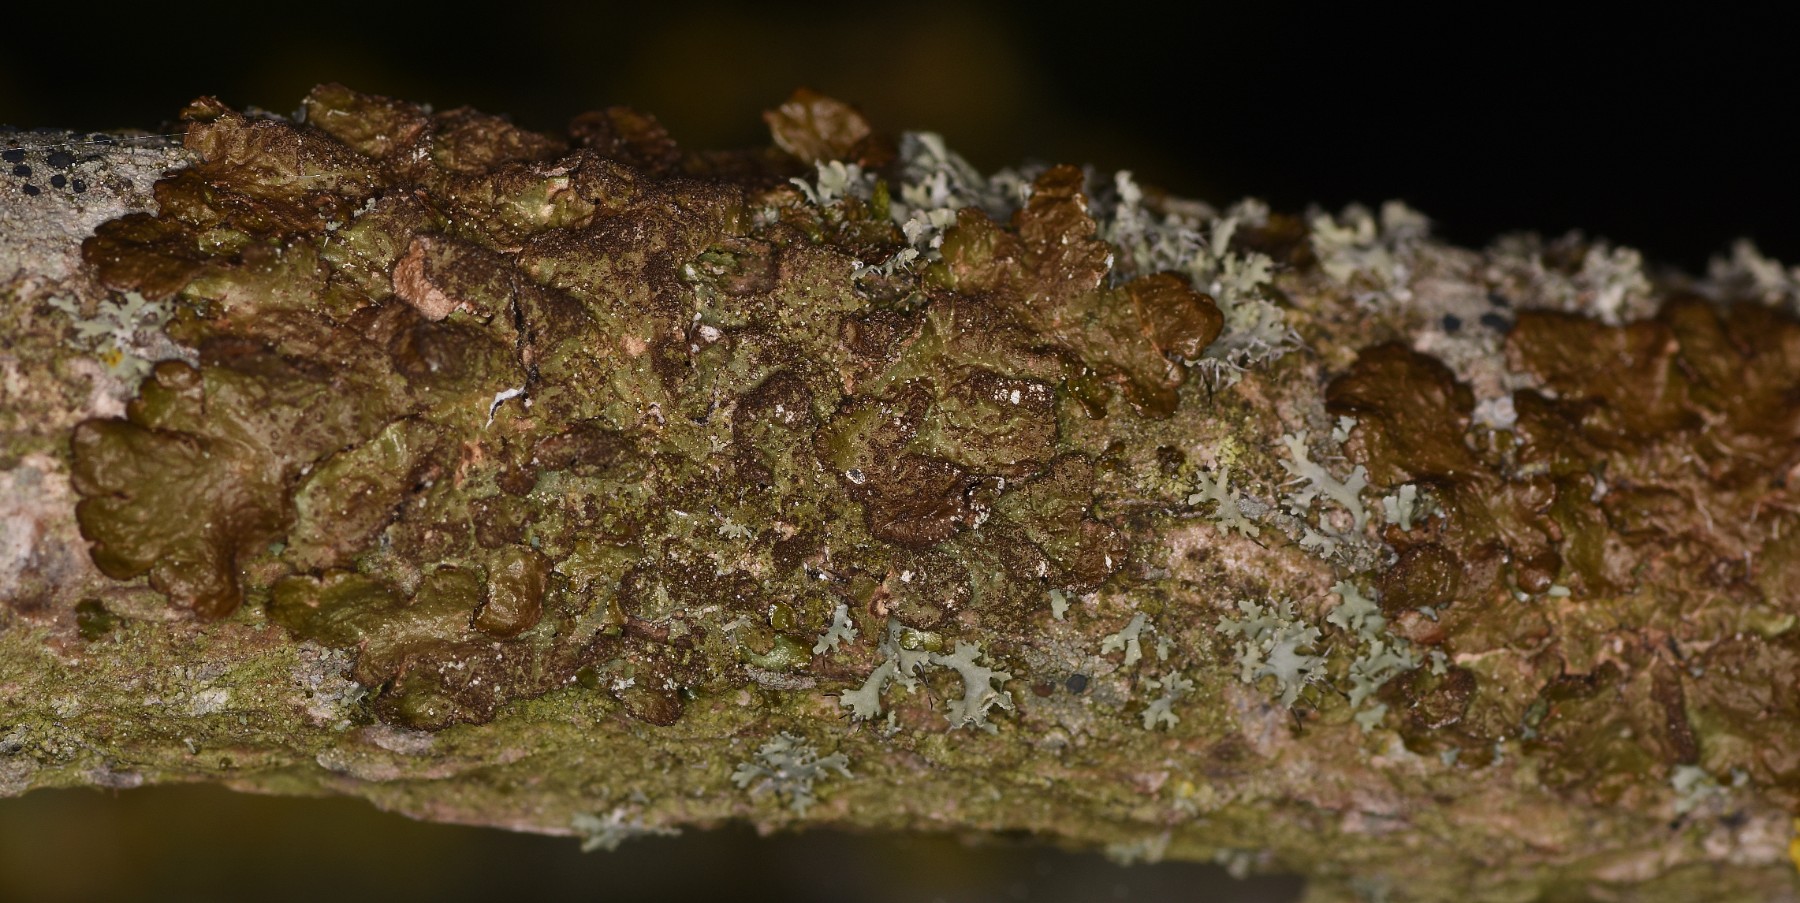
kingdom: Fungi
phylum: Ascomycota
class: Lecanoromycetes
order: Lecanorales
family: Parmeliaceae
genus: Melanelixia
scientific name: Melanelixia subaurifera
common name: guldpudret skållav
